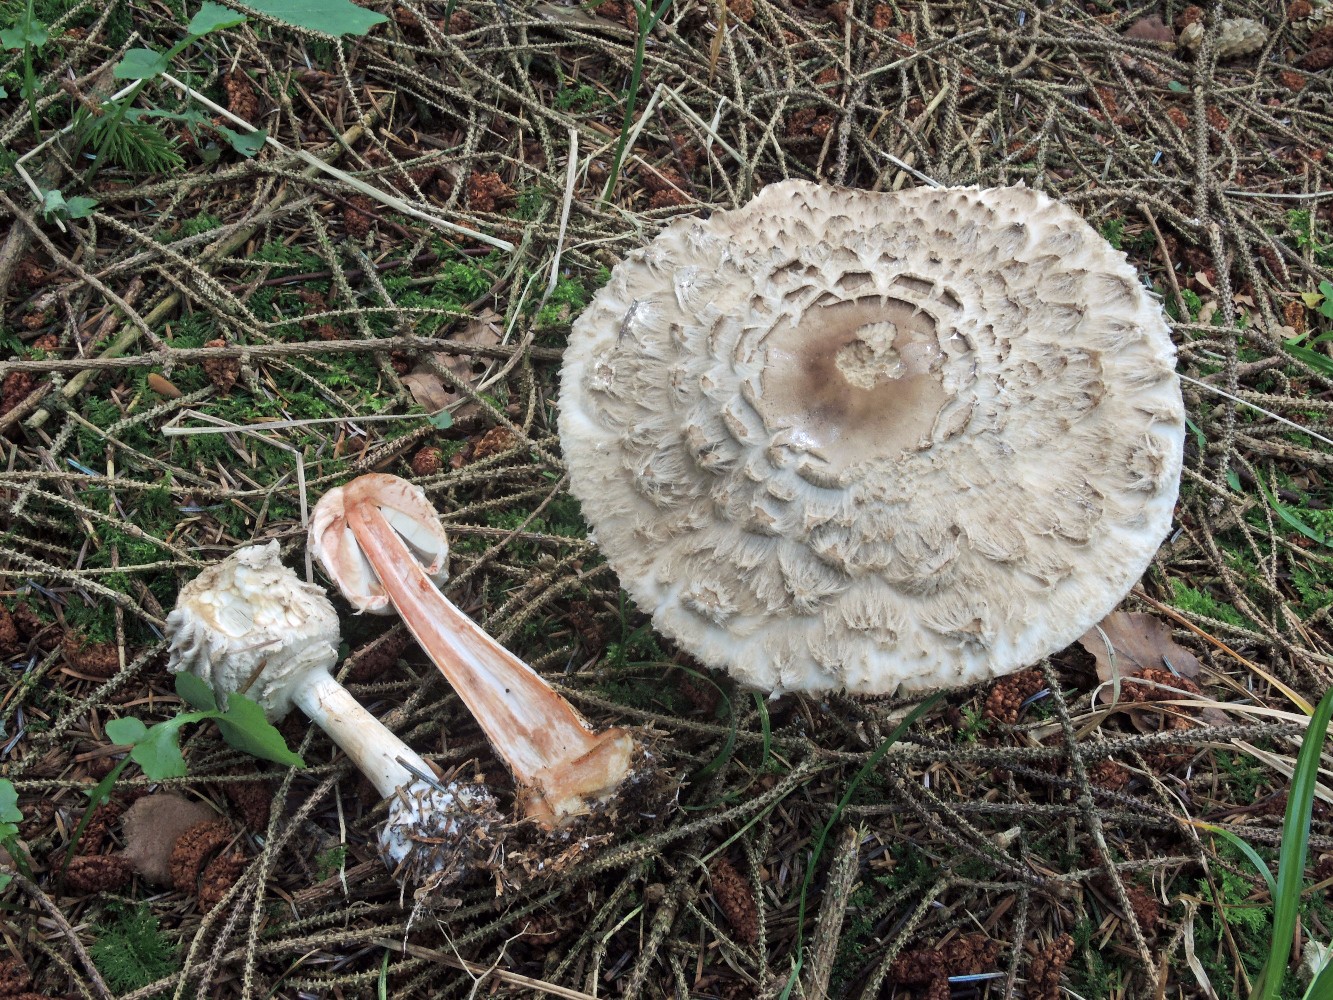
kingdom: Fungi
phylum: Basidiomycota
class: Agaricomycetes
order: Agaricales
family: Agaricaceae
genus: Chlorophyllum
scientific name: Chlorophyllum olivieri
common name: almindelig rabarberhat
